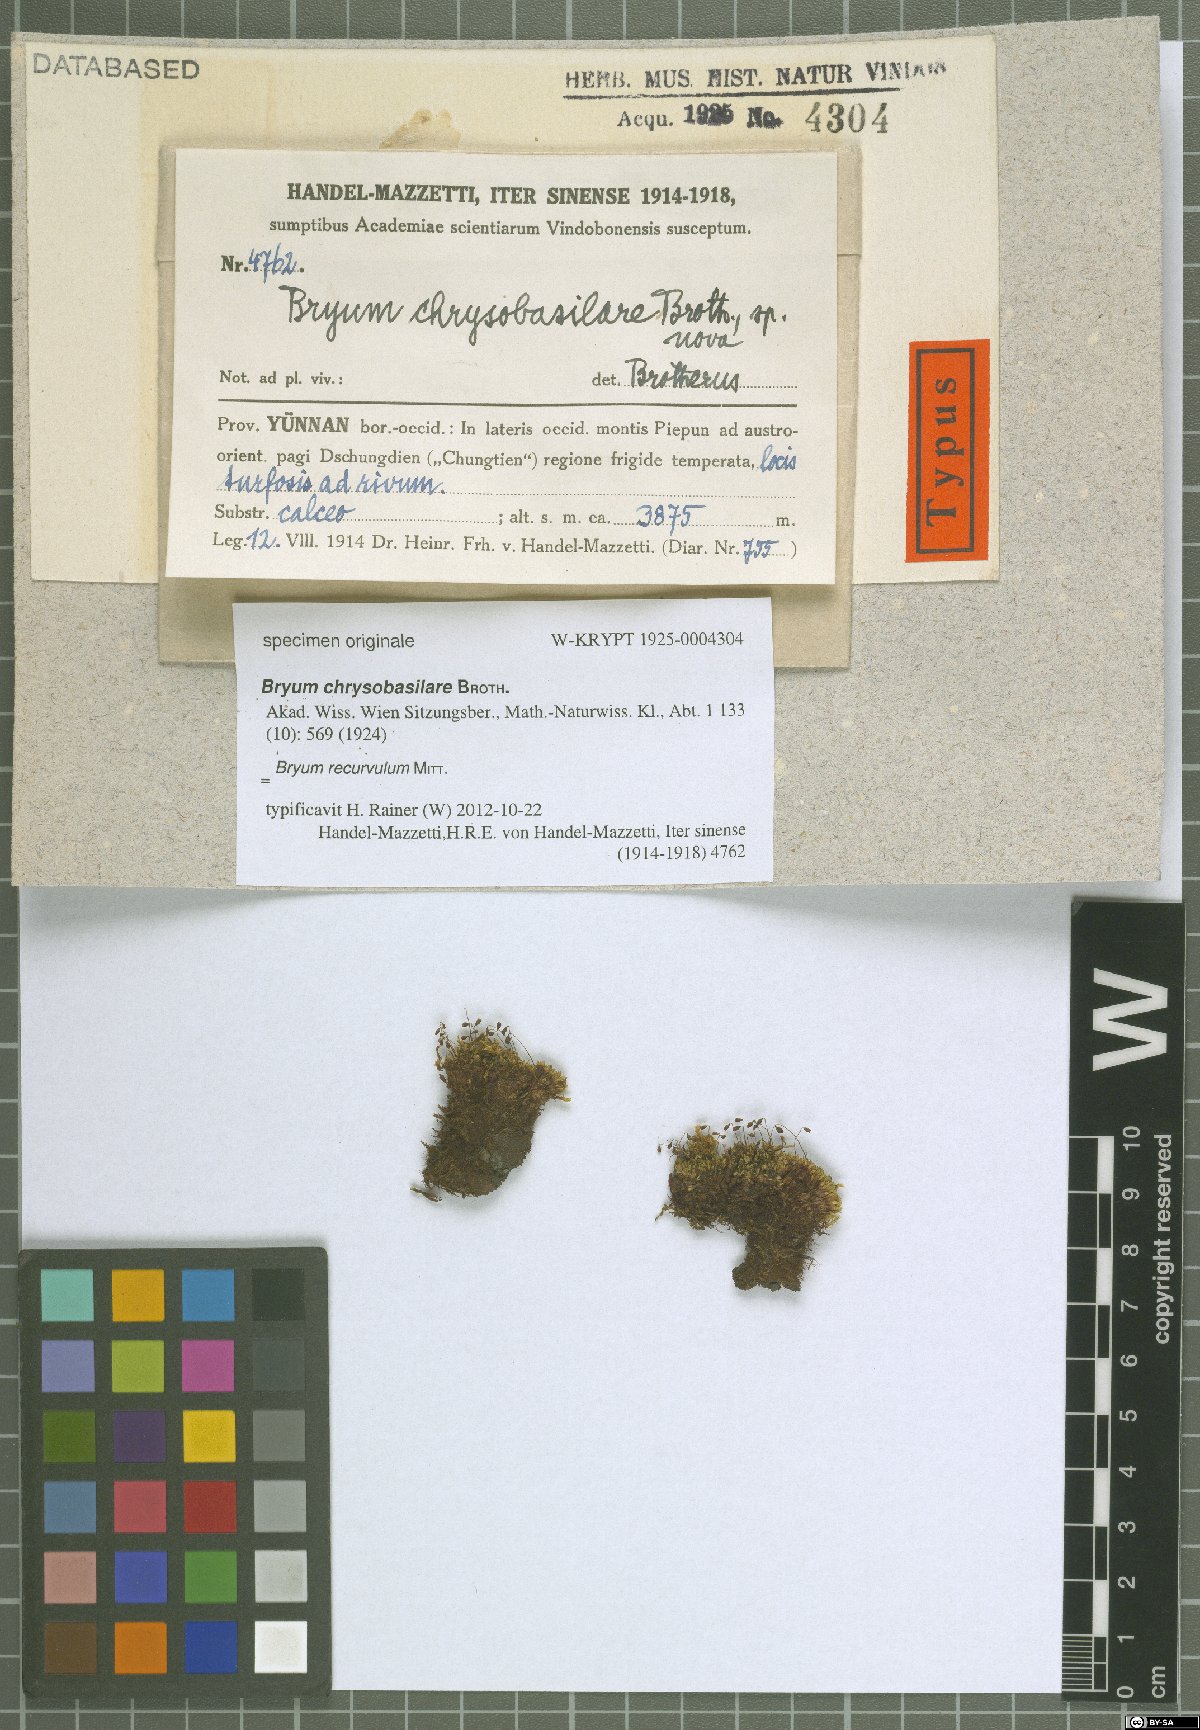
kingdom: Plantae
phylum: Bryophyta
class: Bryopsida
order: Bryales
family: Bryaceae
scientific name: Bryaceae
